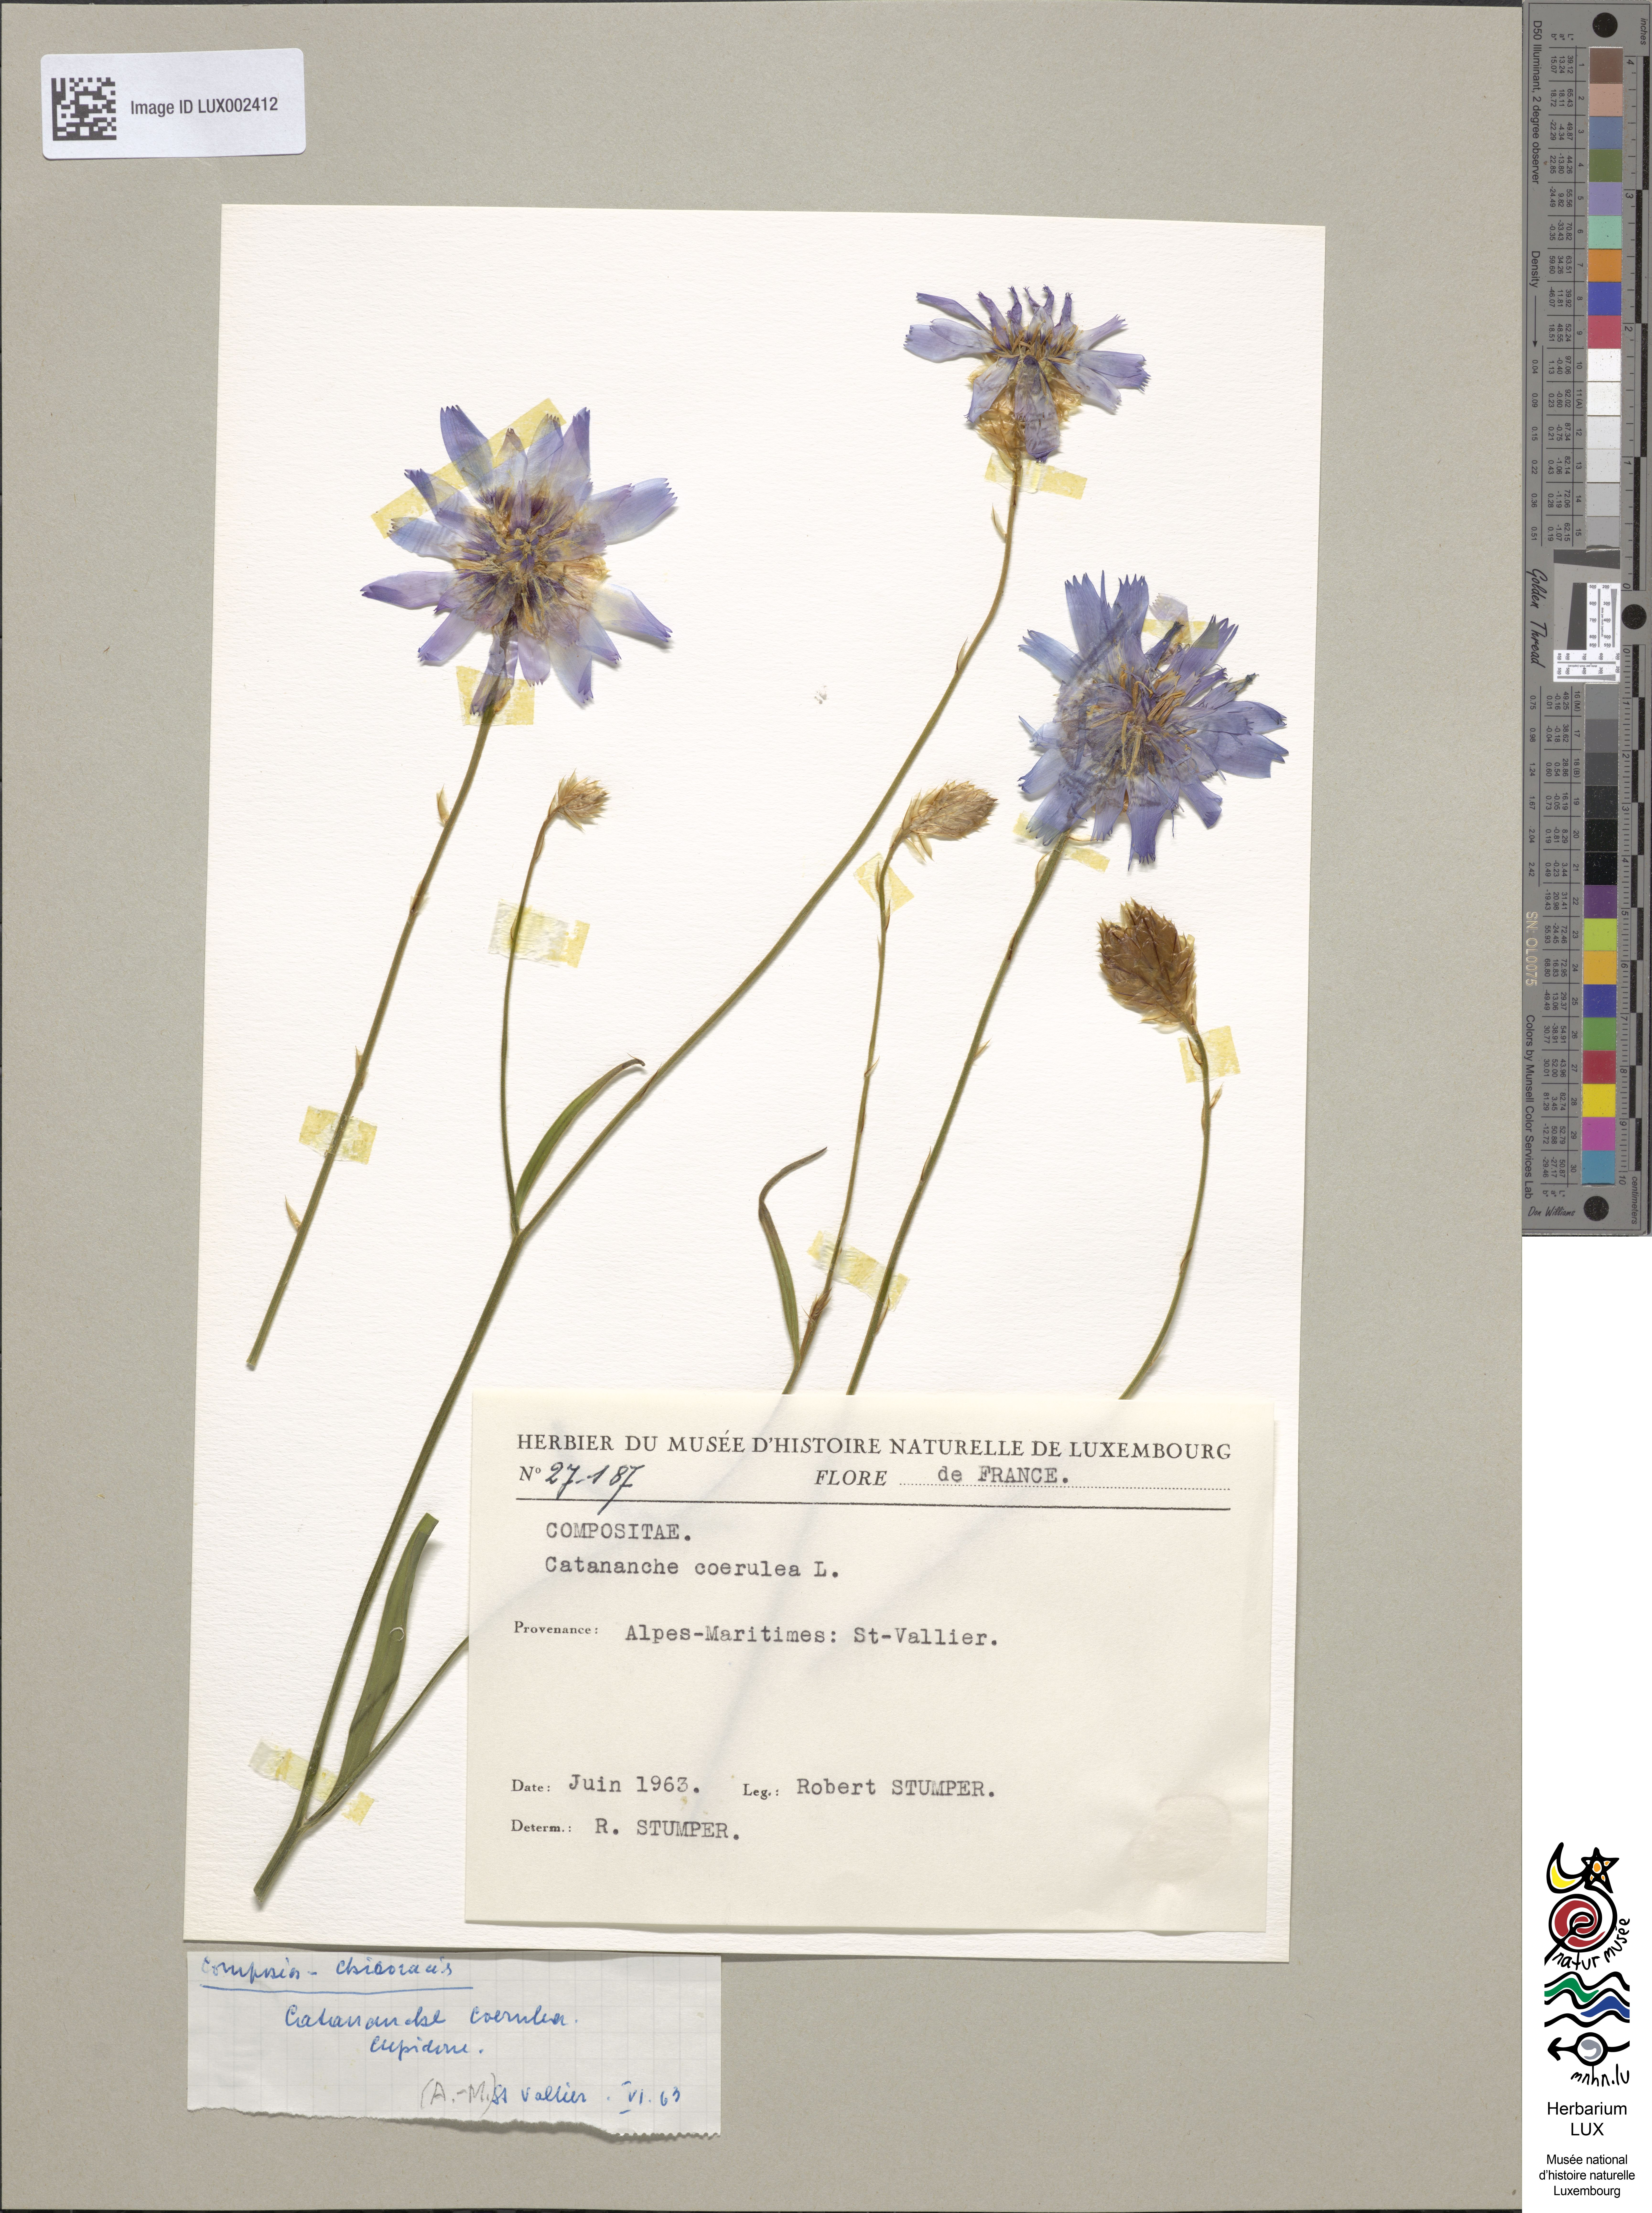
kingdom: Plantae
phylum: Tracheophyta
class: Magnoliopsida
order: Asterales
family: Asteraceae
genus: Catananche
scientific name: Catananche caerulea
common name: Blue cupidone
